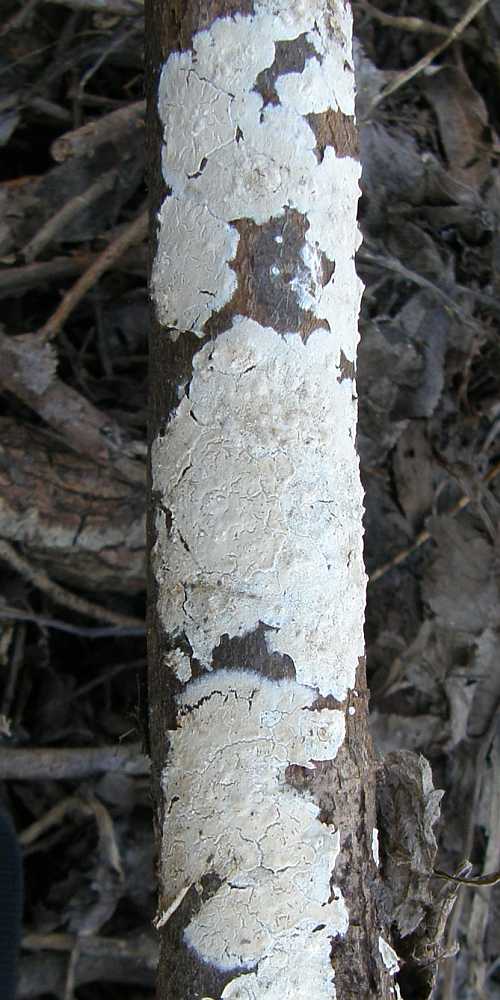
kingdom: Fungi
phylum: Basidiomycota
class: Agaricomycetes
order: Agaricales
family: Physalacriaceae
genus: Cylindrobasidium
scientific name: Cylindrobasidium evolvens
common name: sprækkehinde
